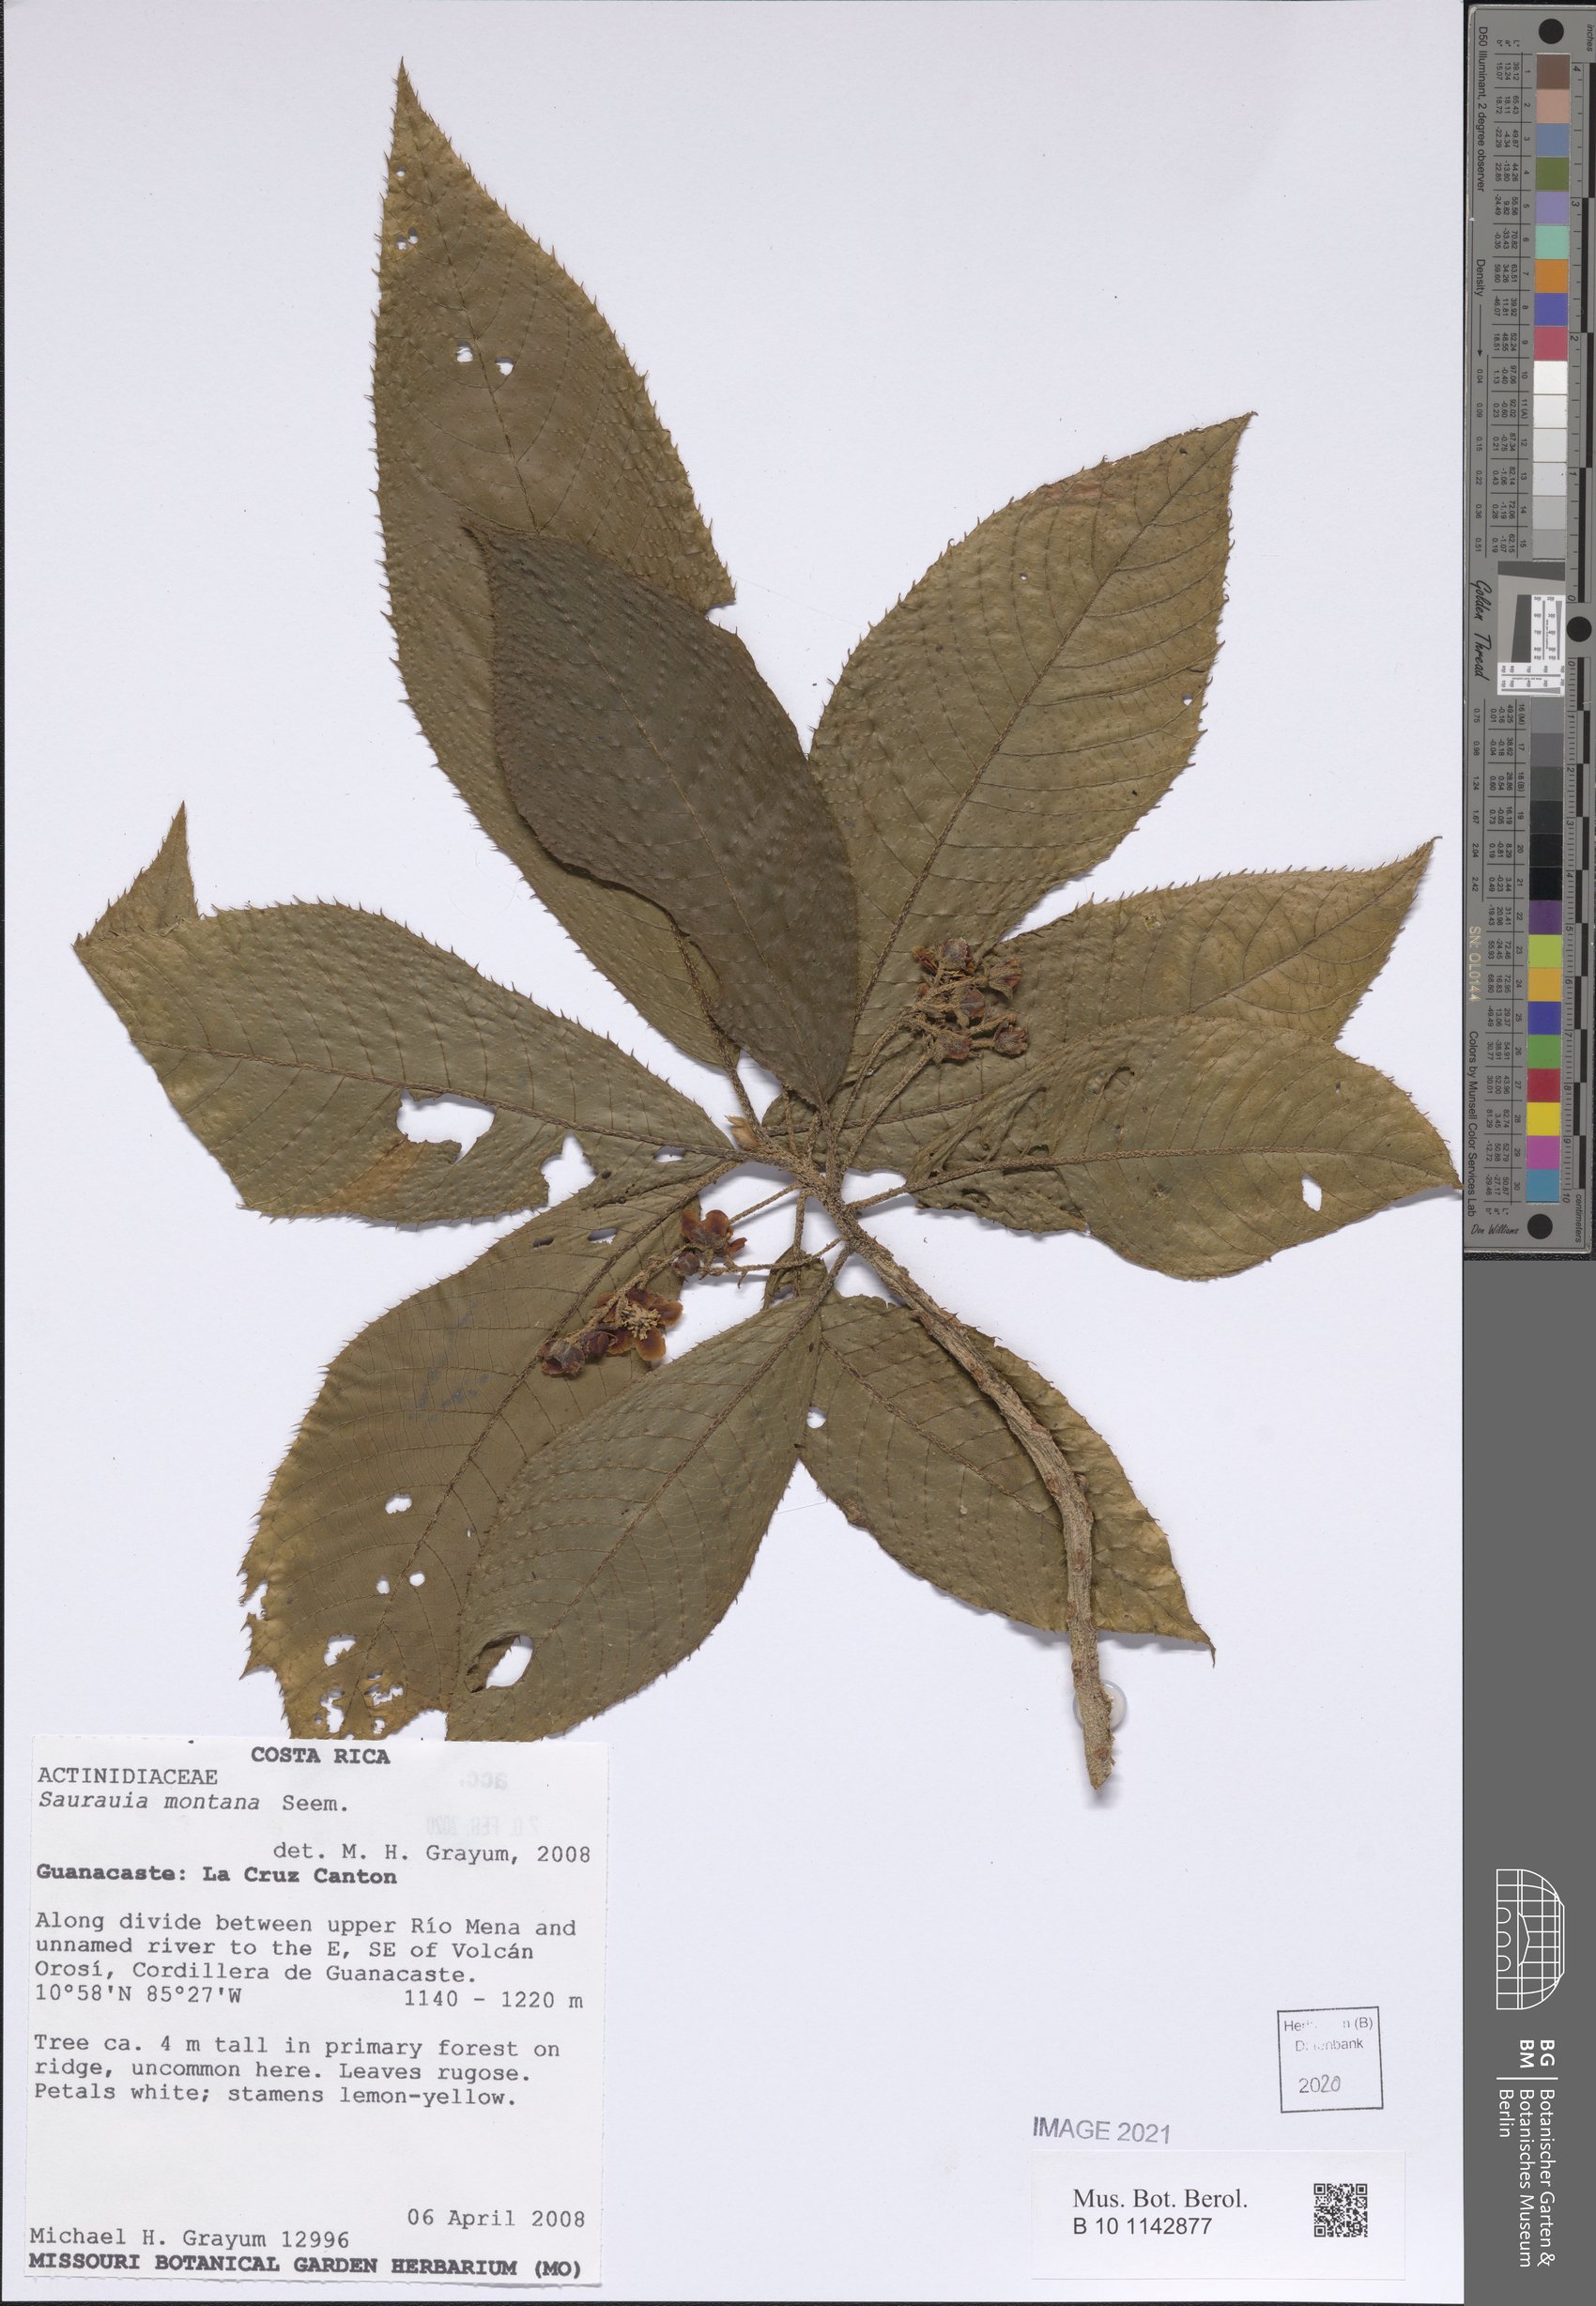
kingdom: Plantae
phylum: Tracheophyta
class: Magnoliopsida
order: Ericales
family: Actinidiaceae
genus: Saurauia
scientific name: Saurauia montana
